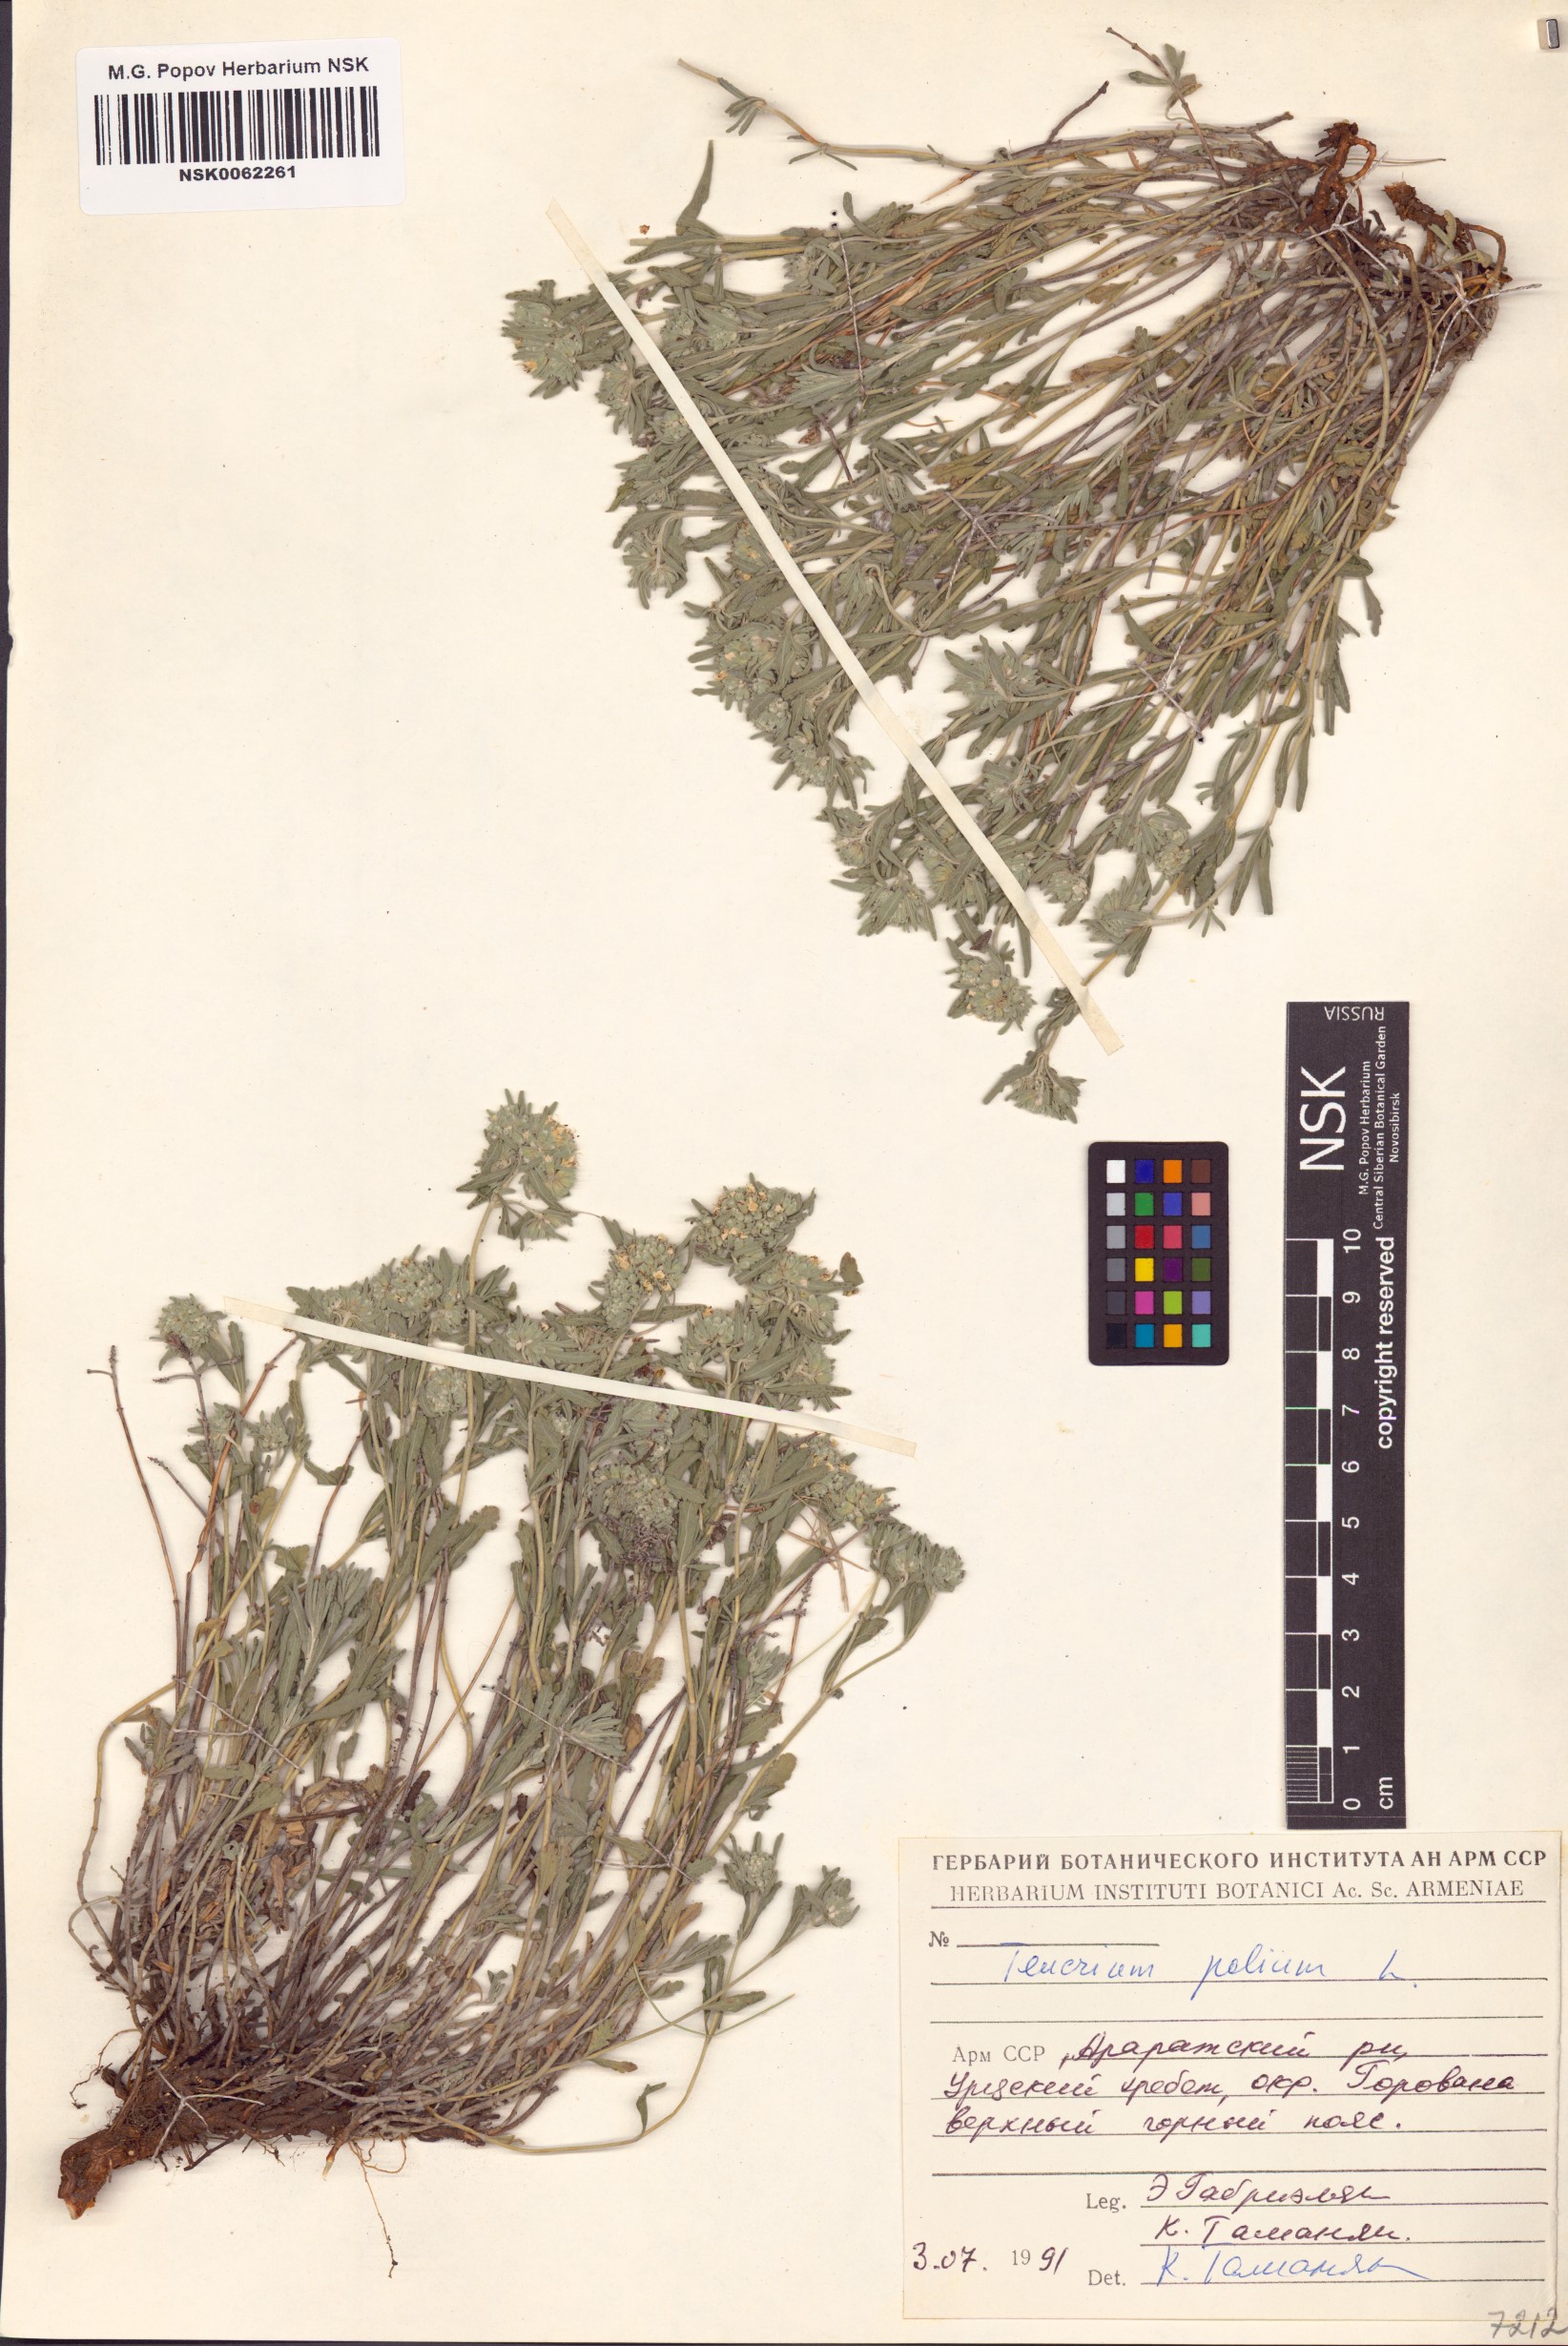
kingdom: Plantae
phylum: Tracheophyta
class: Magnoliopsida
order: Lamiales
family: Lamiaceae
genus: Teucrium
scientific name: Teucrium polium
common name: Poley
